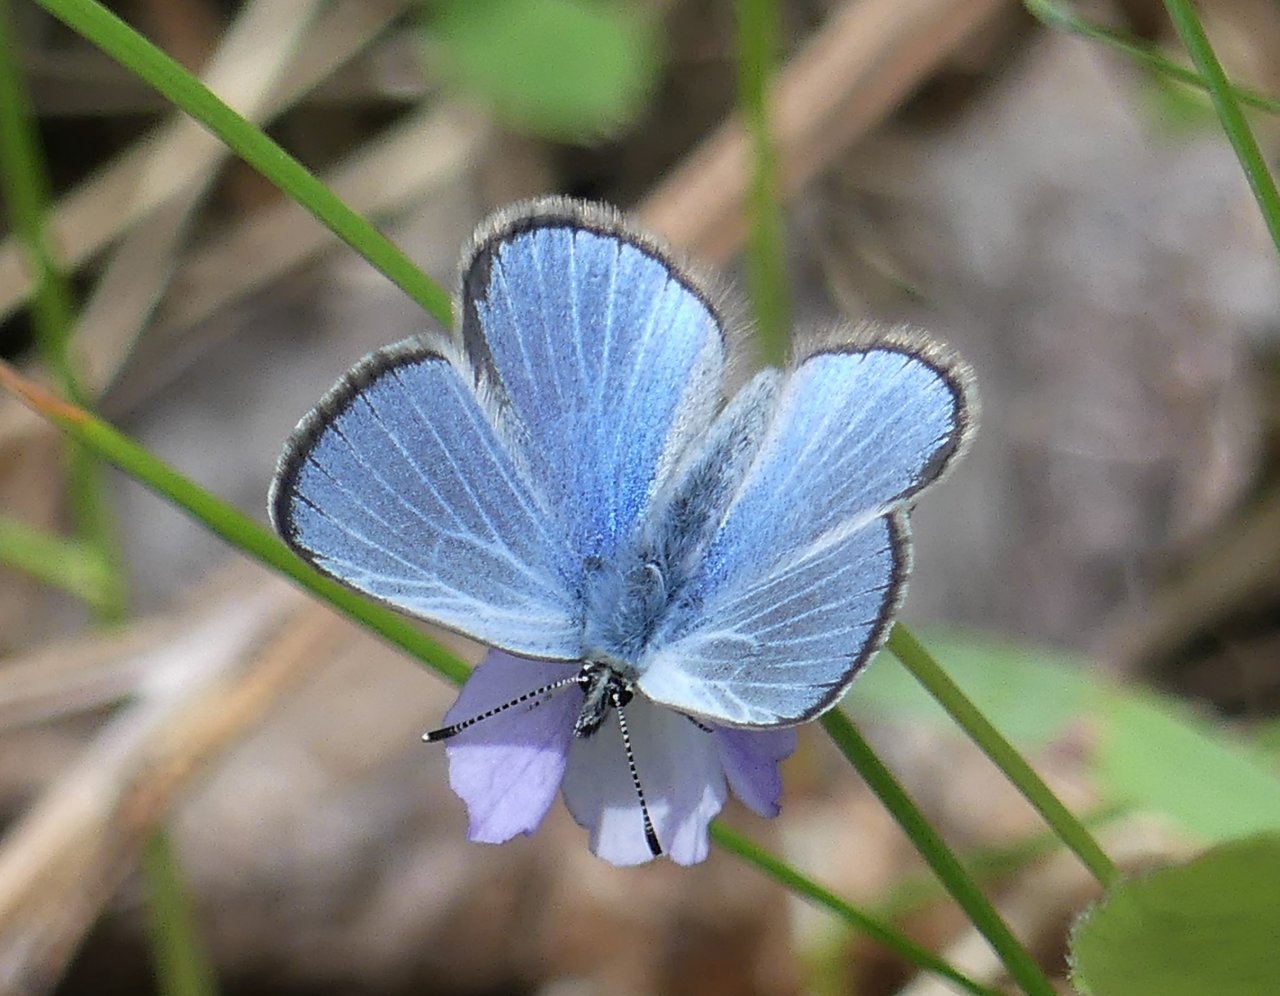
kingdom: Animalia
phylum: Arthropoda
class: Insecta
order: Lepidoptera
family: Lycaenidae
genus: Glaucopsyche
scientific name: Glaucopsyche lygdamus
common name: Silvery Blue
